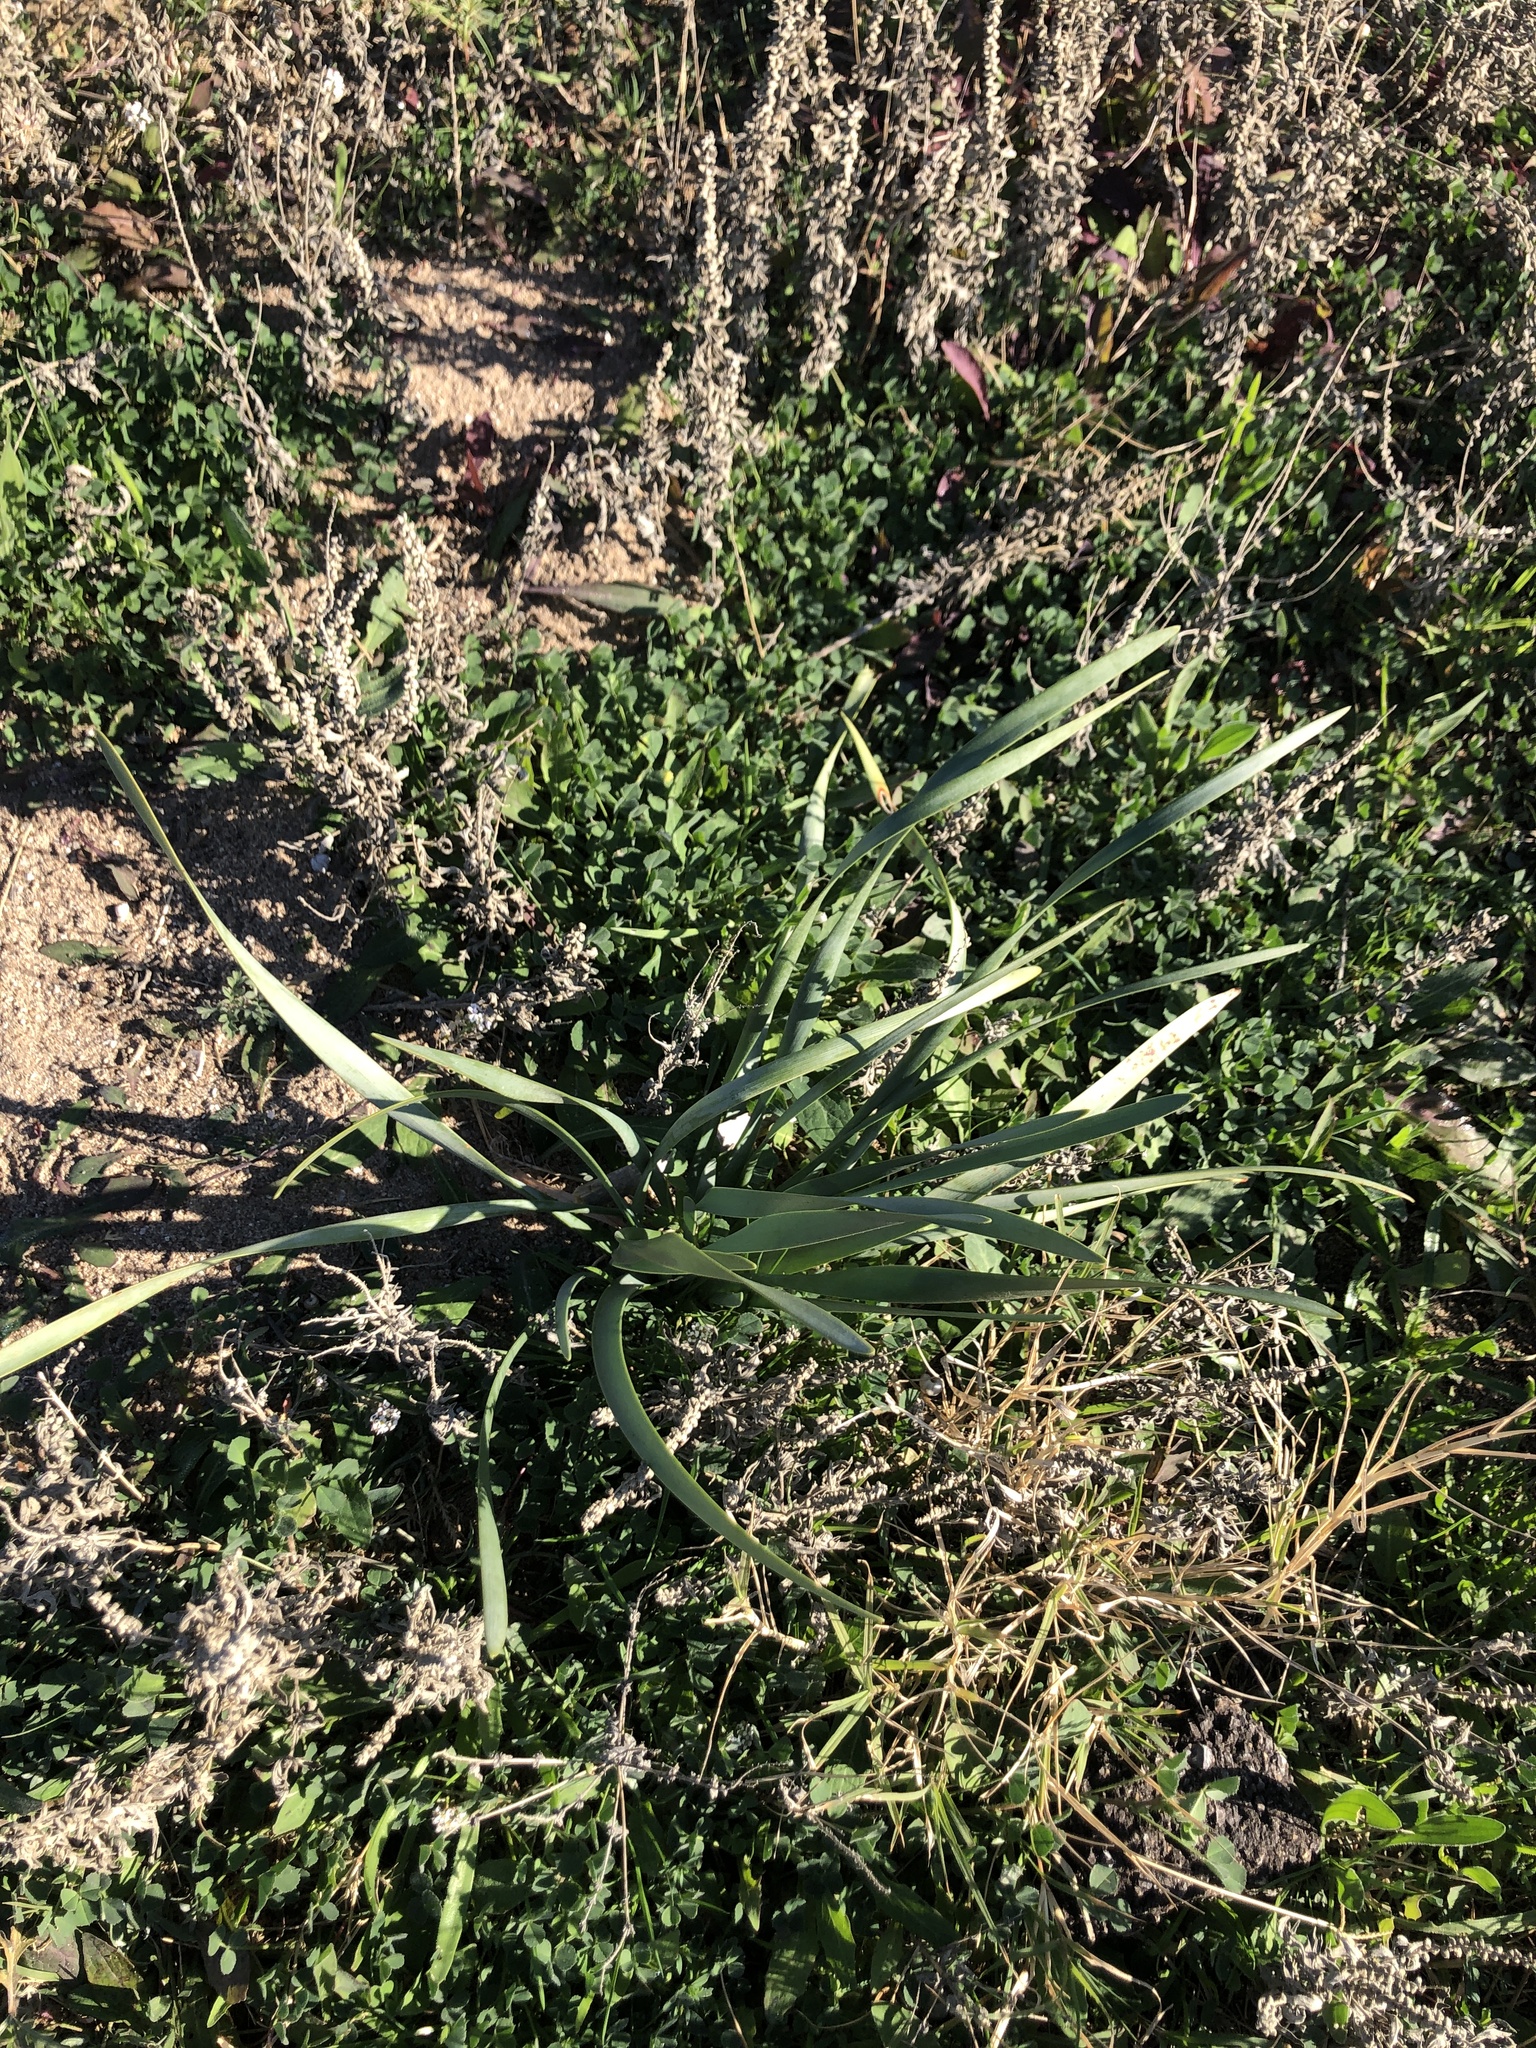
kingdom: Plantae
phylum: Tracheophyta
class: Liliopsida
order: Asparagales
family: Amaryllidaceae
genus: Pancratium
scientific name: Pancratium maritimum
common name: Sea-daffodil
